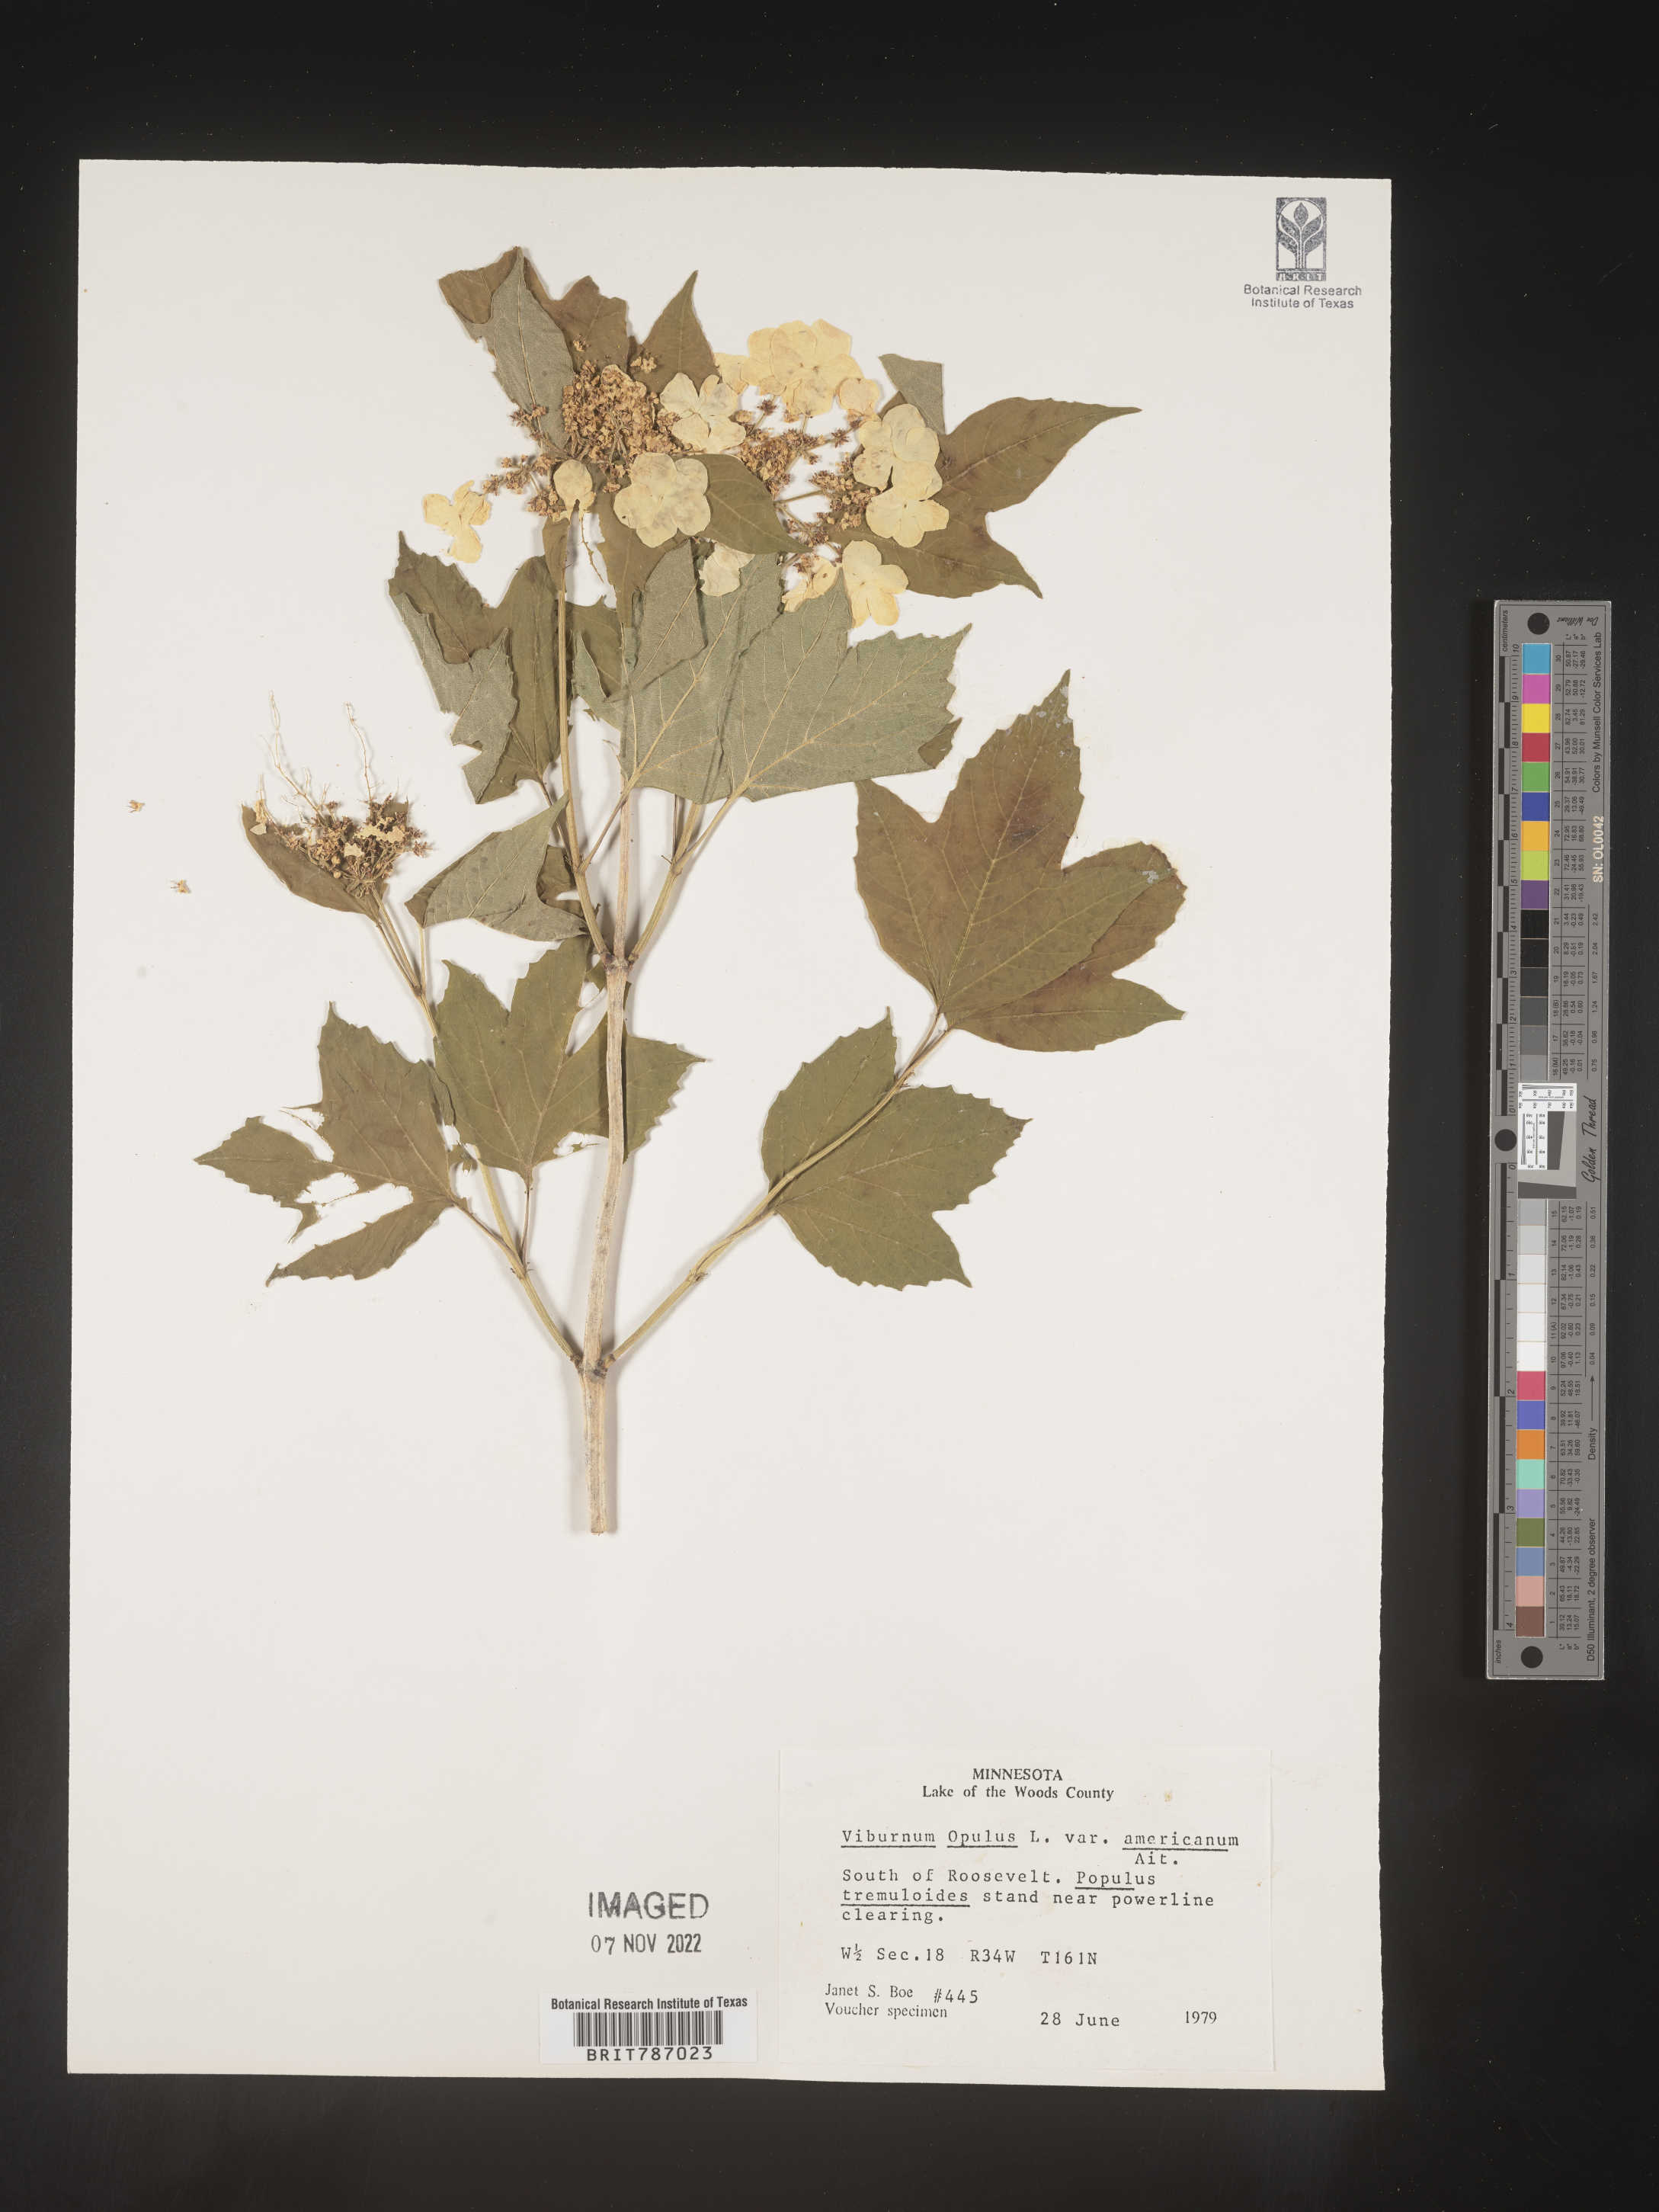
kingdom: Plantae
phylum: Tracheophyta
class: Magnoliopsida
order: Dipsacales
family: Viburnaceae
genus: Viburnum
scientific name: Viburnum opulus
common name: Guelder-rose
